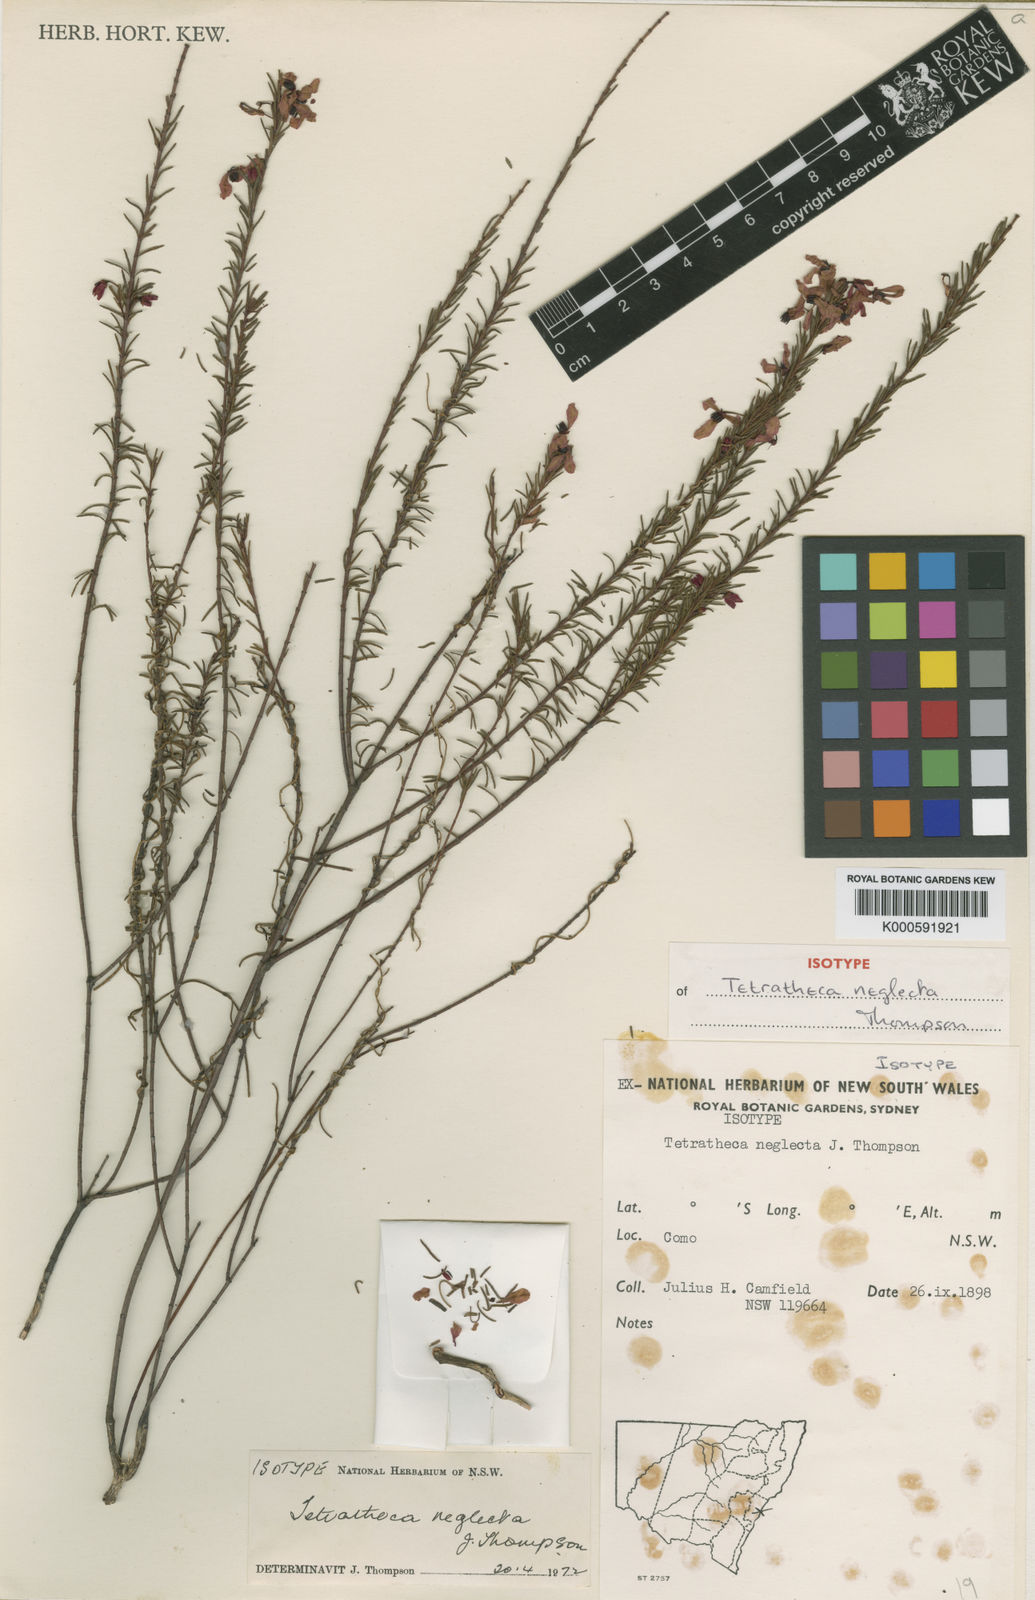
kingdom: Plantae
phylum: Tracheophyta
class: Magnoliopsida
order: Oxalidales
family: Elaeocarpaceae
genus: Tetratheca
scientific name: Tetratheca neglecta
